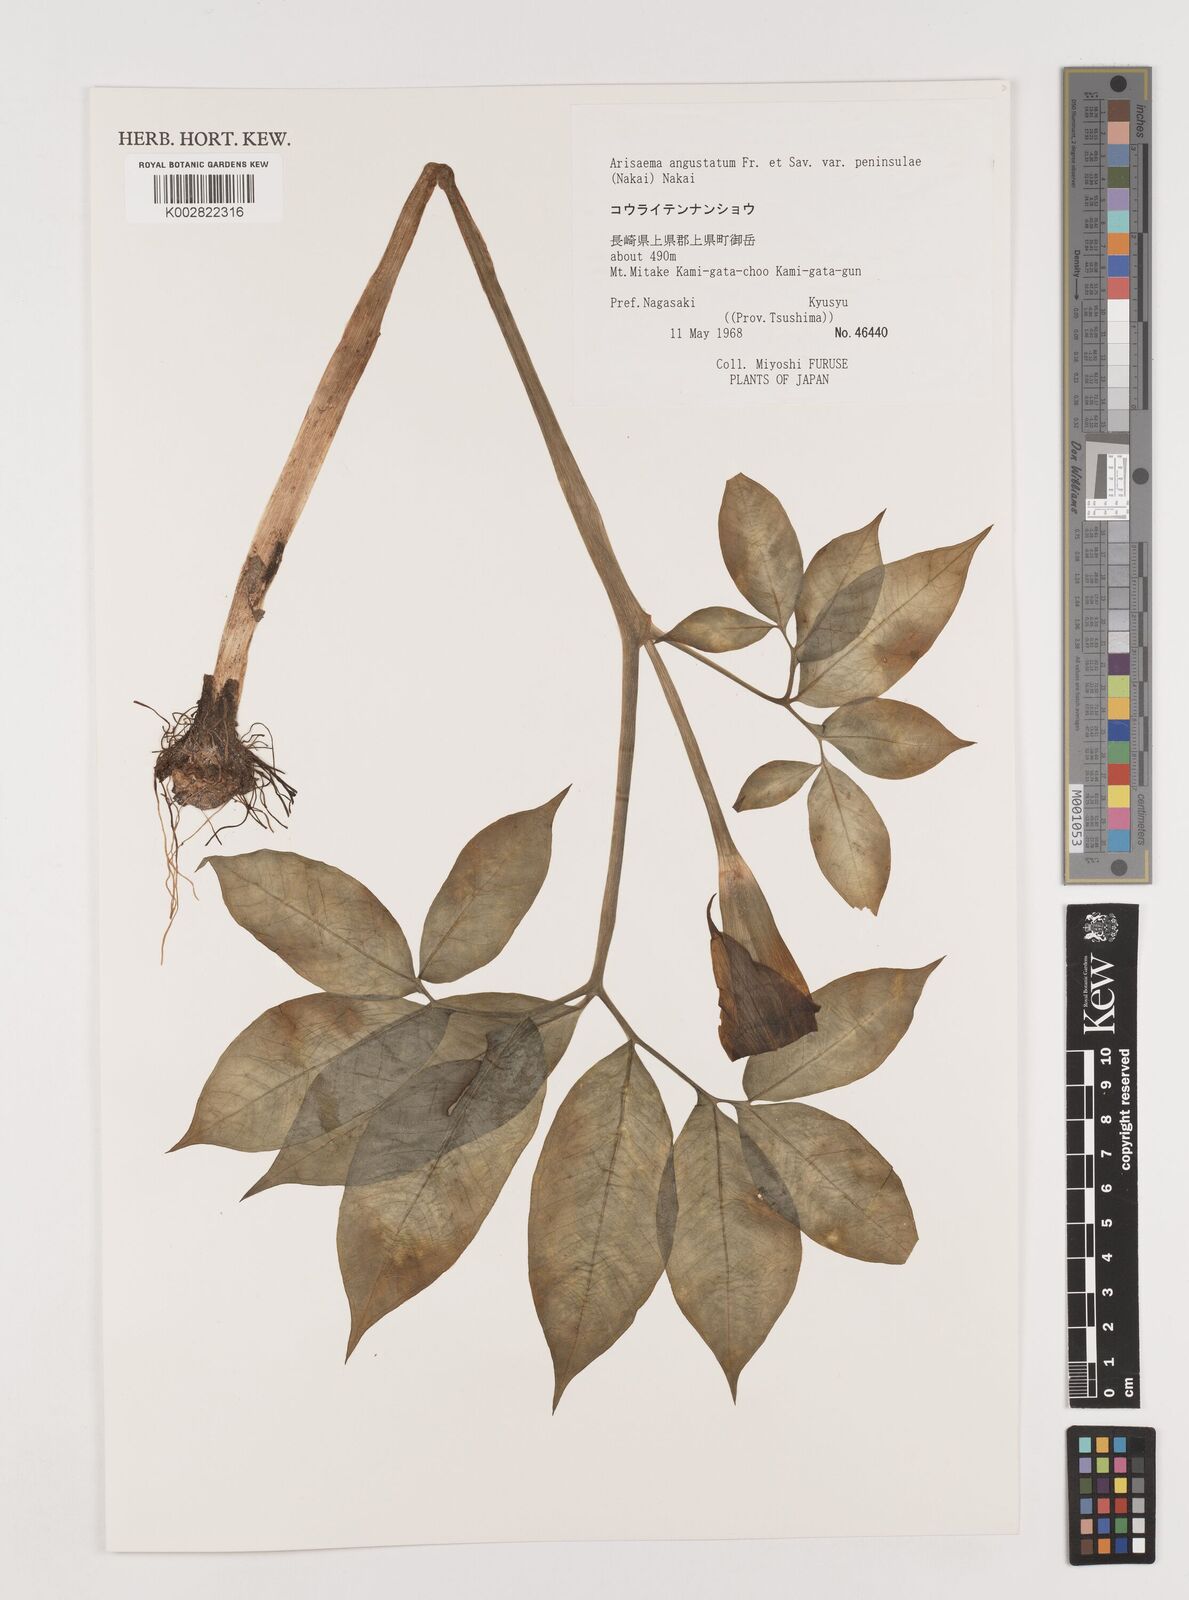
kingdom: Plantae
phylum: Tracheophyta
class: Liliopsida
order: Alismatales
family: Araceae
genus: Arisaema
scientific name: Arisaema angustatum
